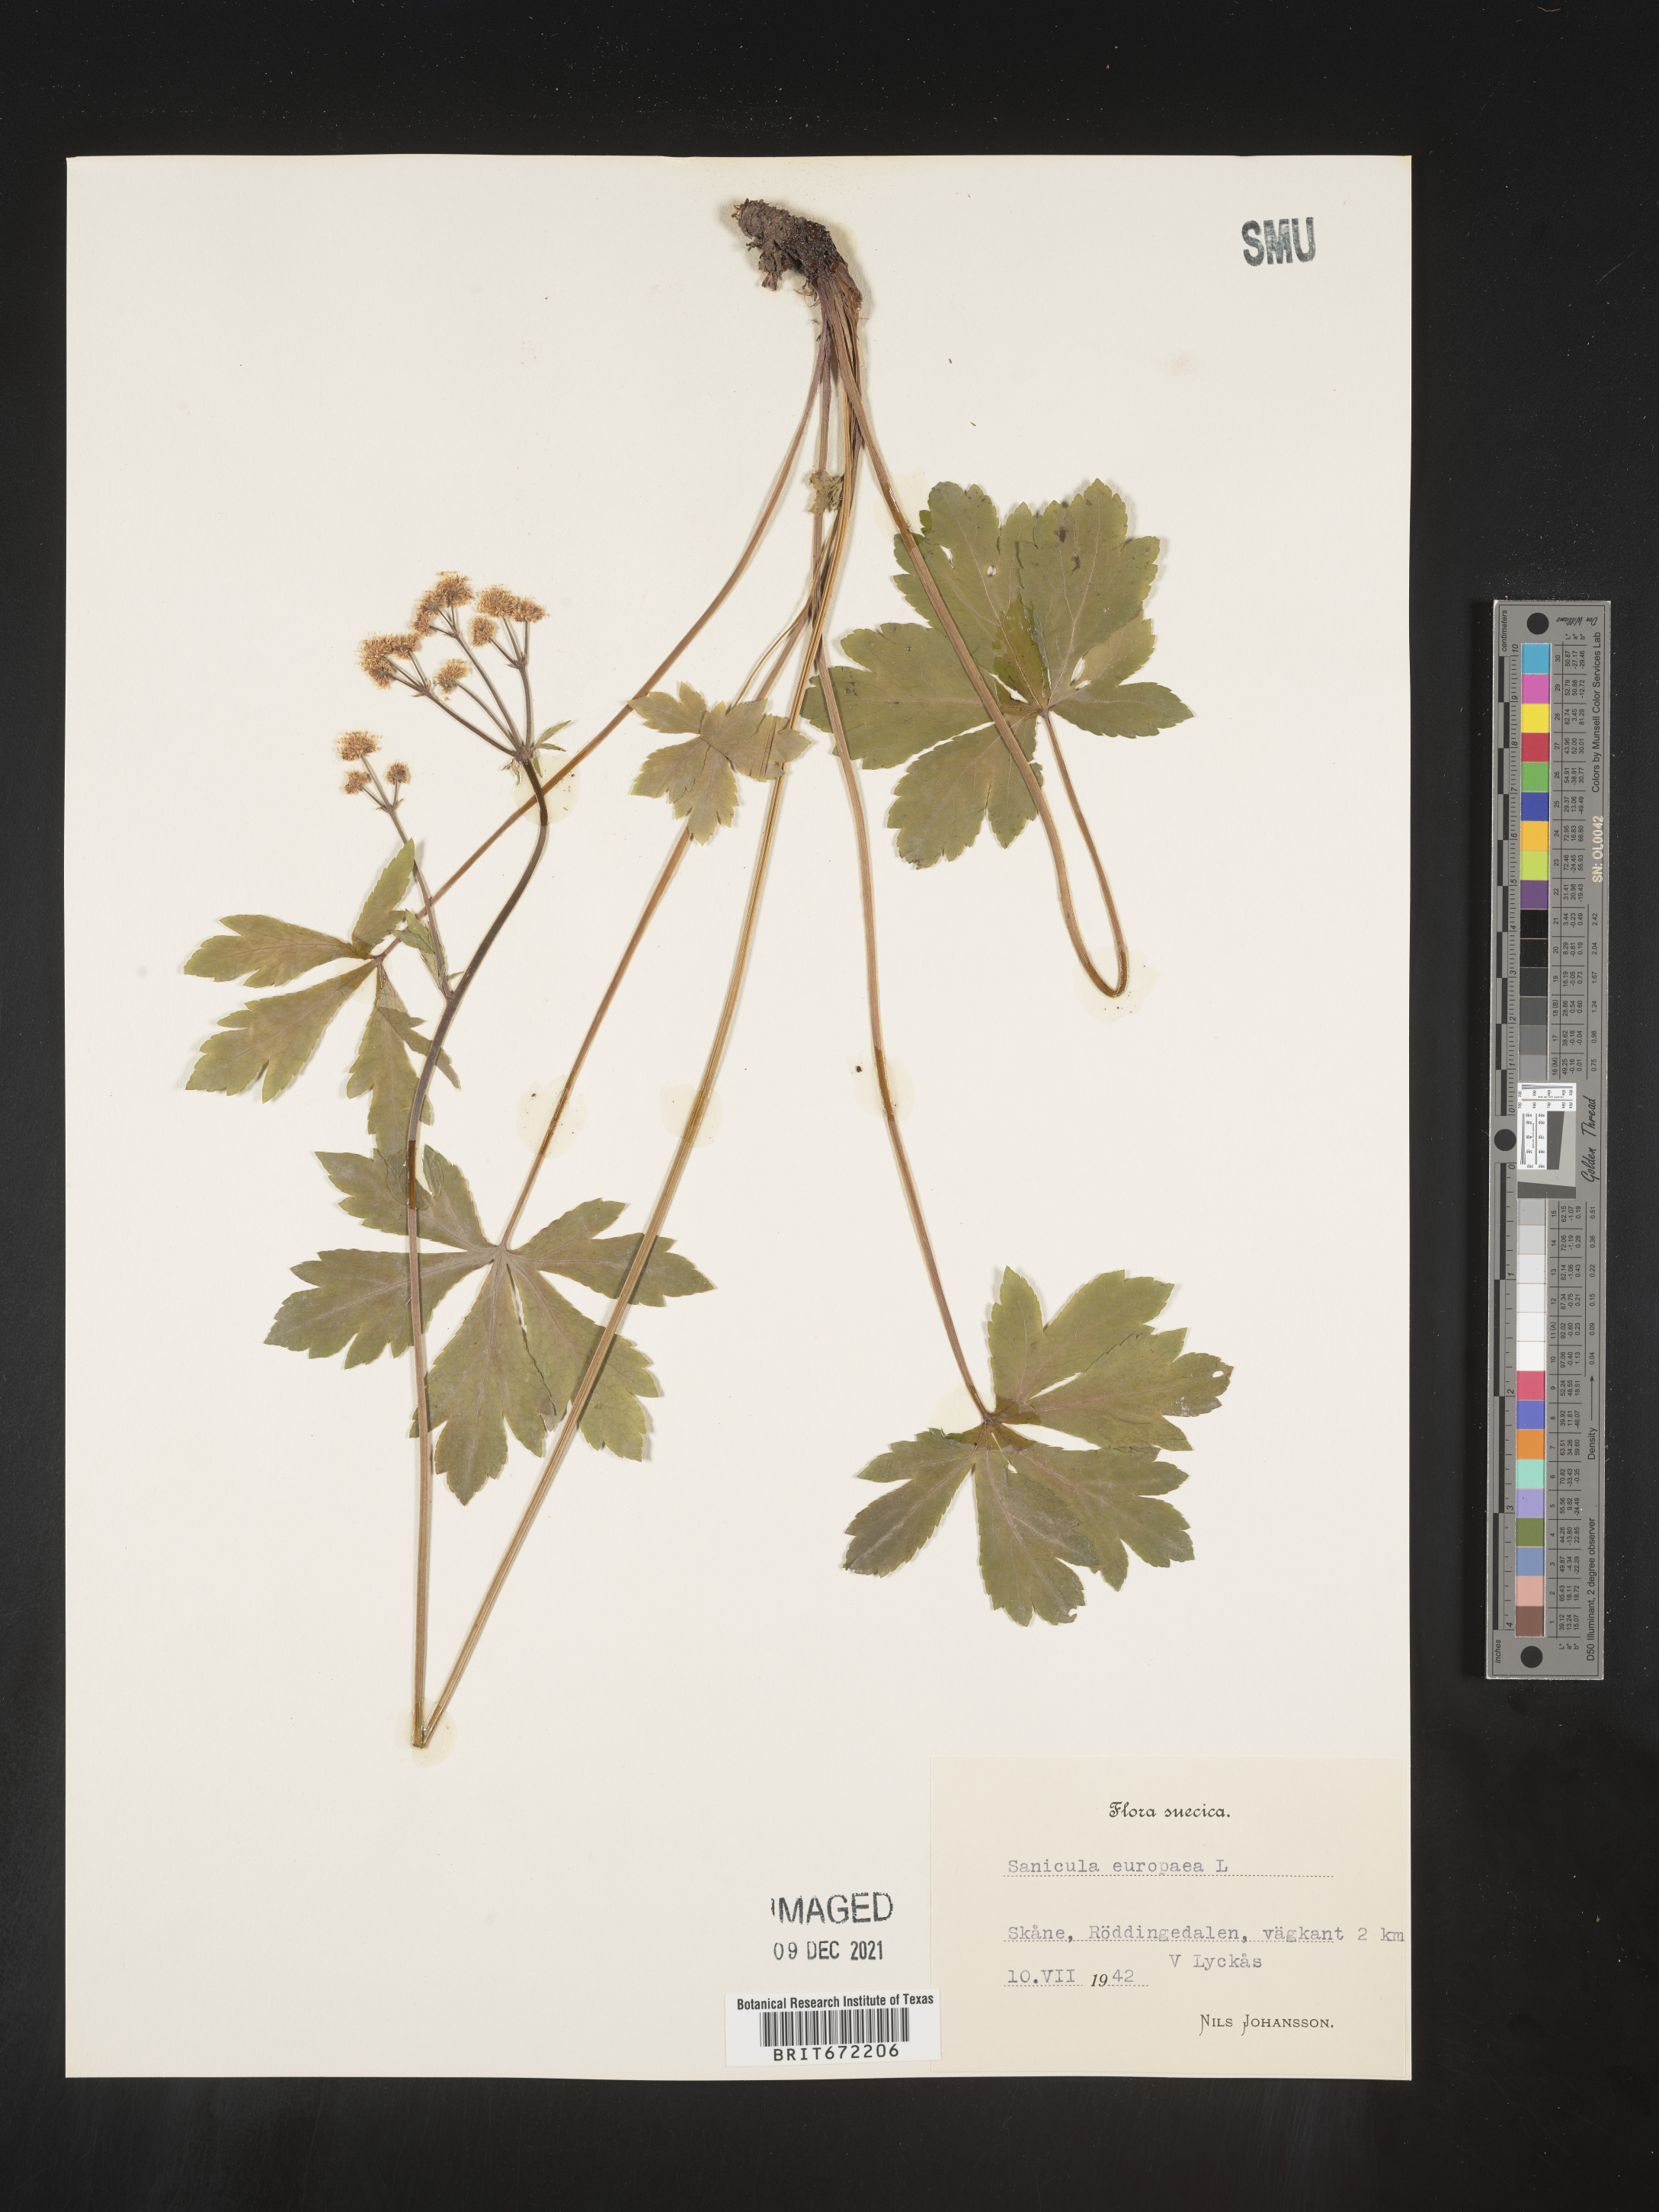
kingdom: Plantae
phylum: Tracheophyta
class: Magnoliopsida
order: Apiales
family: Apiaceae
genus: Sanicula
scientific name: Sanicula
